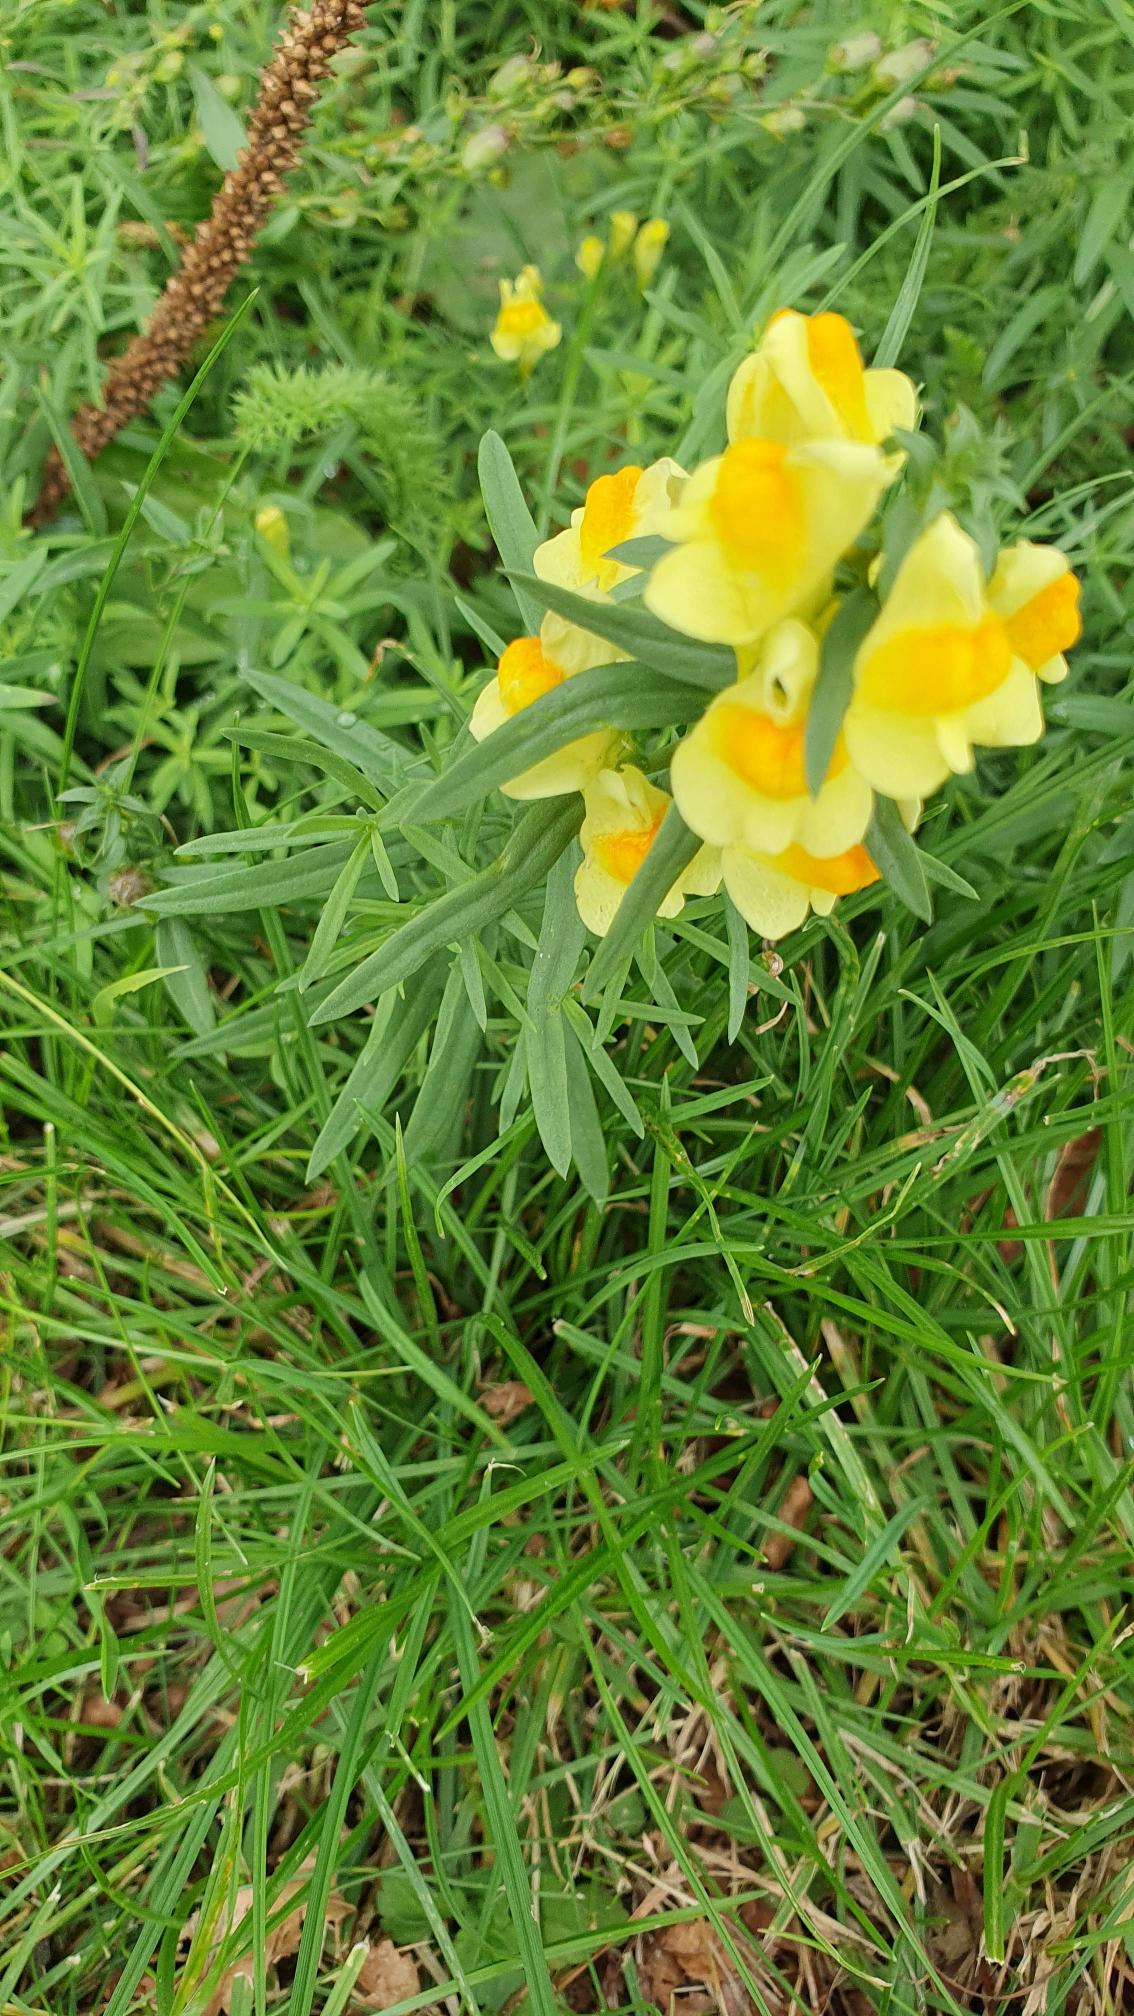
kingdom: Plantae
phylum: Tracheophyta
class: Magnoliopsida
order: Lamiales
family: Plantaginaceae
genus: Linaria
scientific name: Linaria vulgaris
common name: Almindelig torskemund
